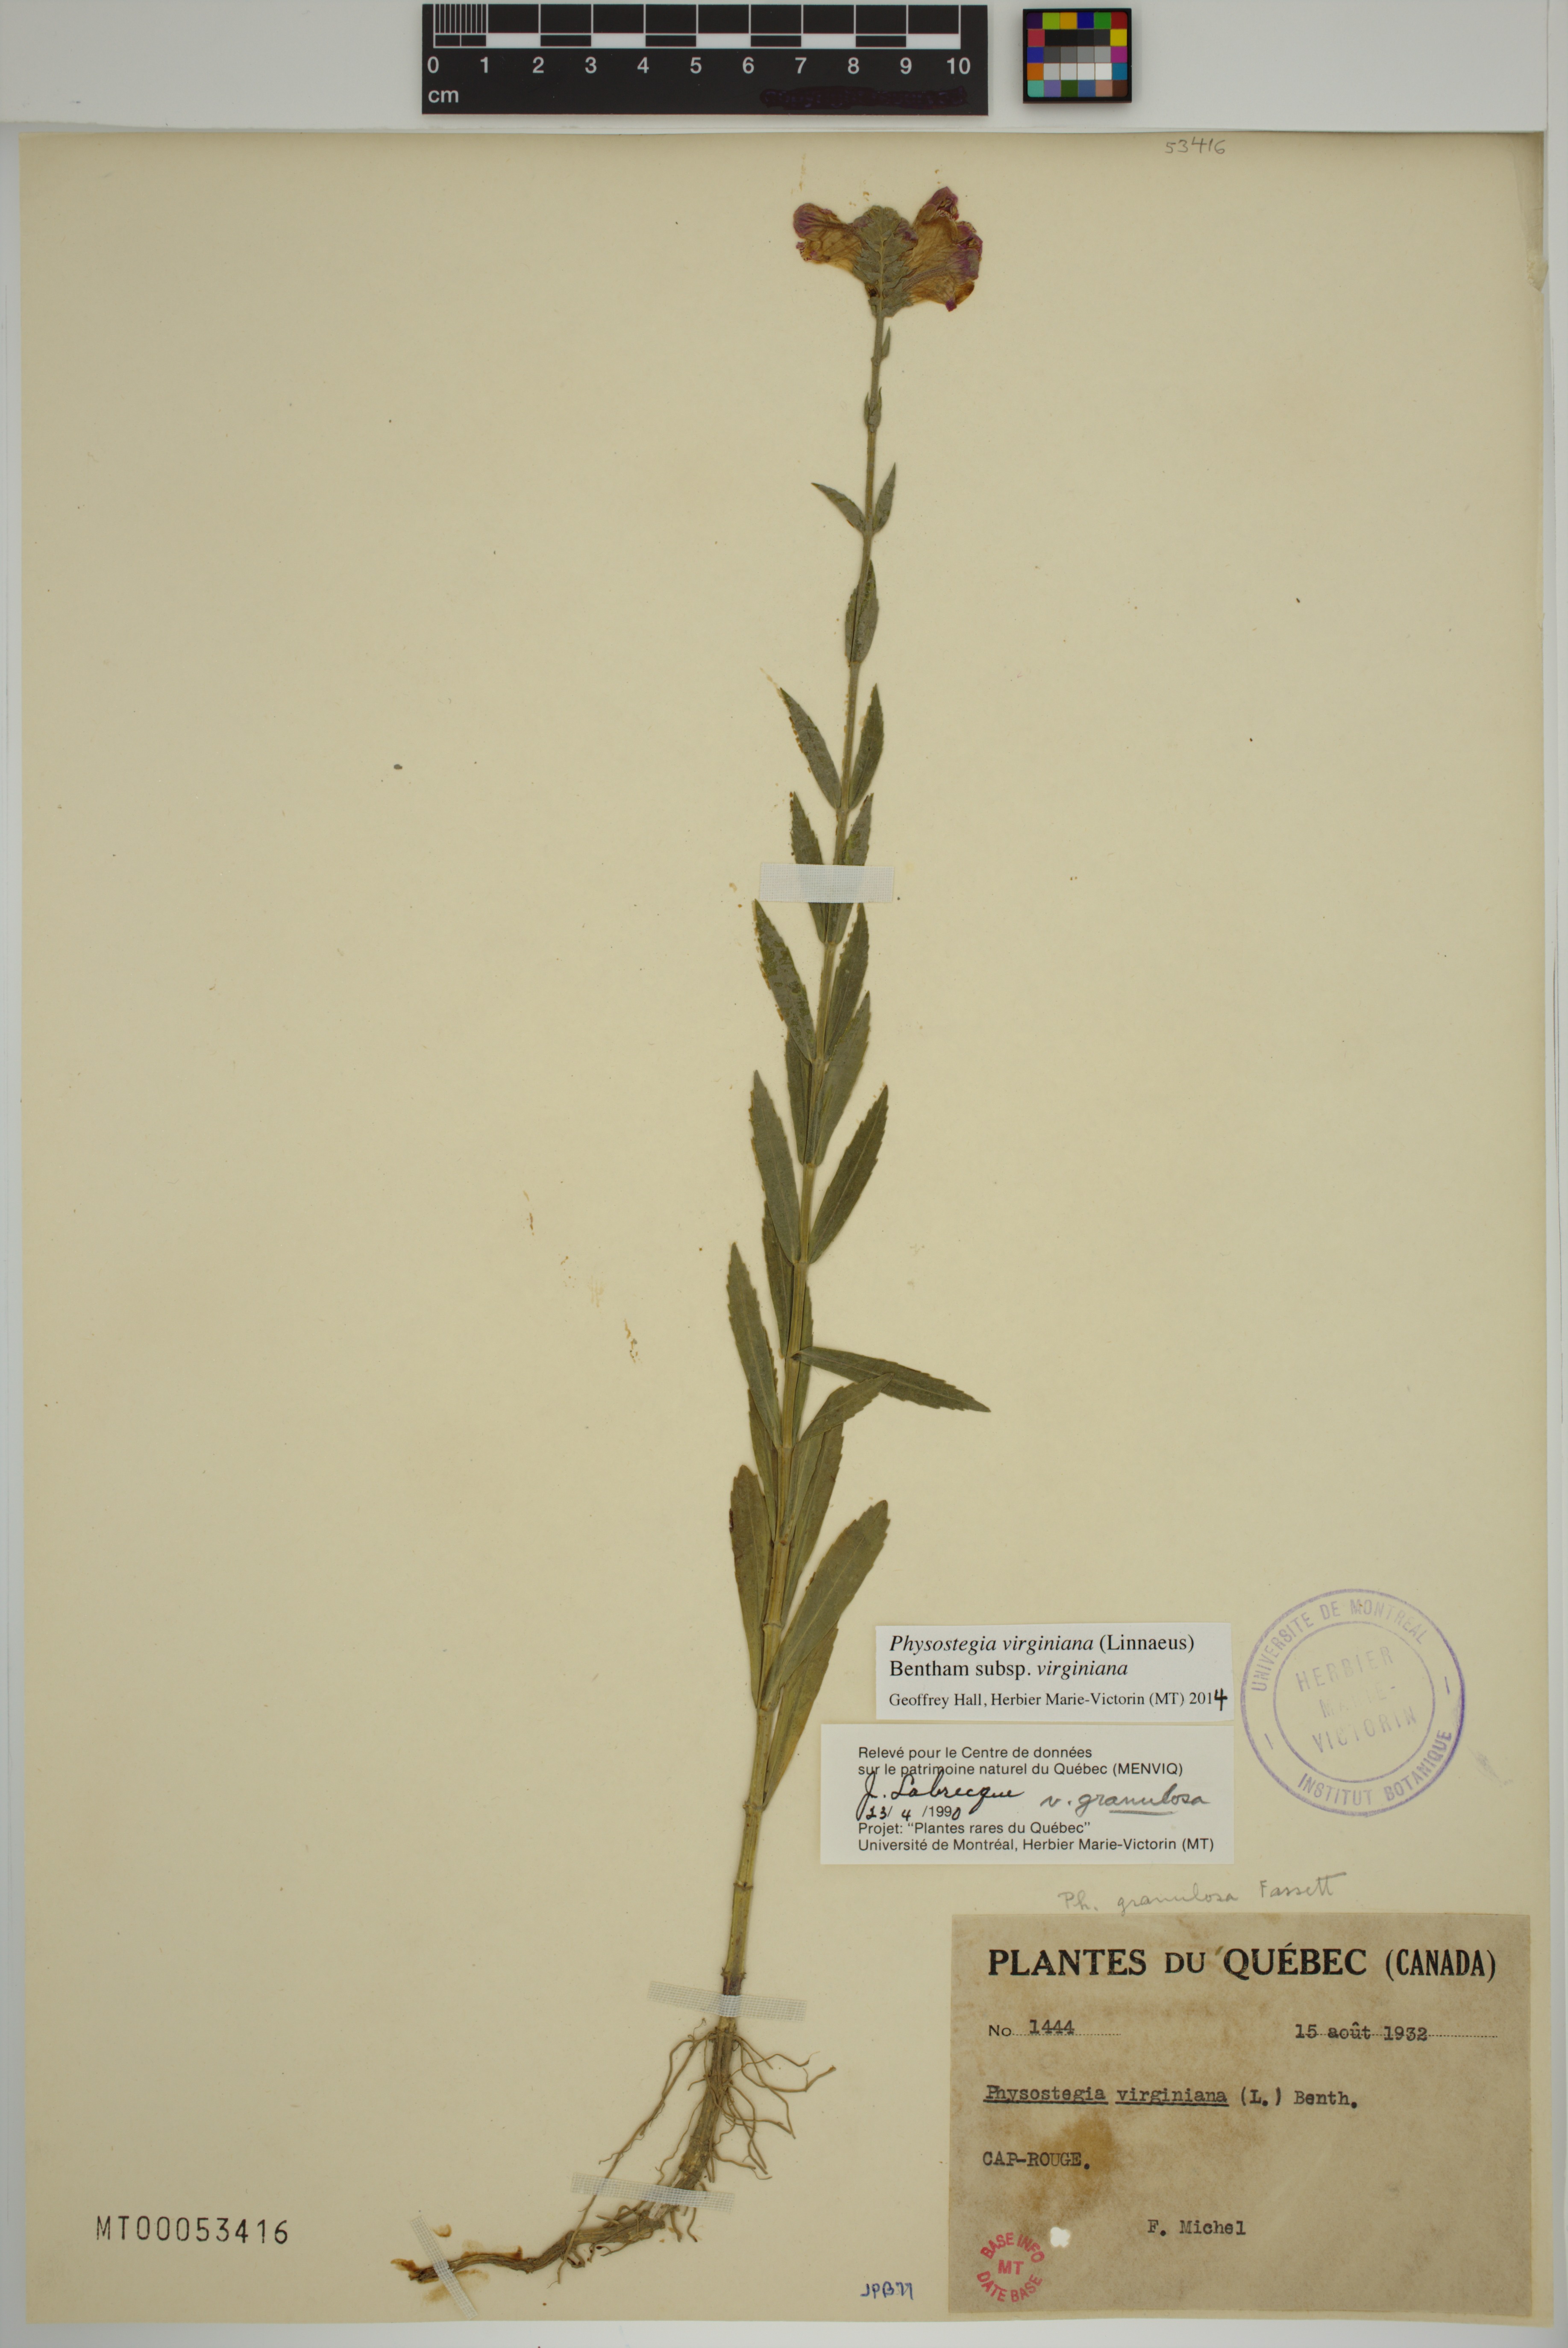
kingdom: Plantae
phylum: Tracheophyta
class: Magnoliopsida
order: Lamiales
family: Lamiaceae
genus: Physostegia
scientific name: Physostegia virginiana
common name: Obedient-plant
